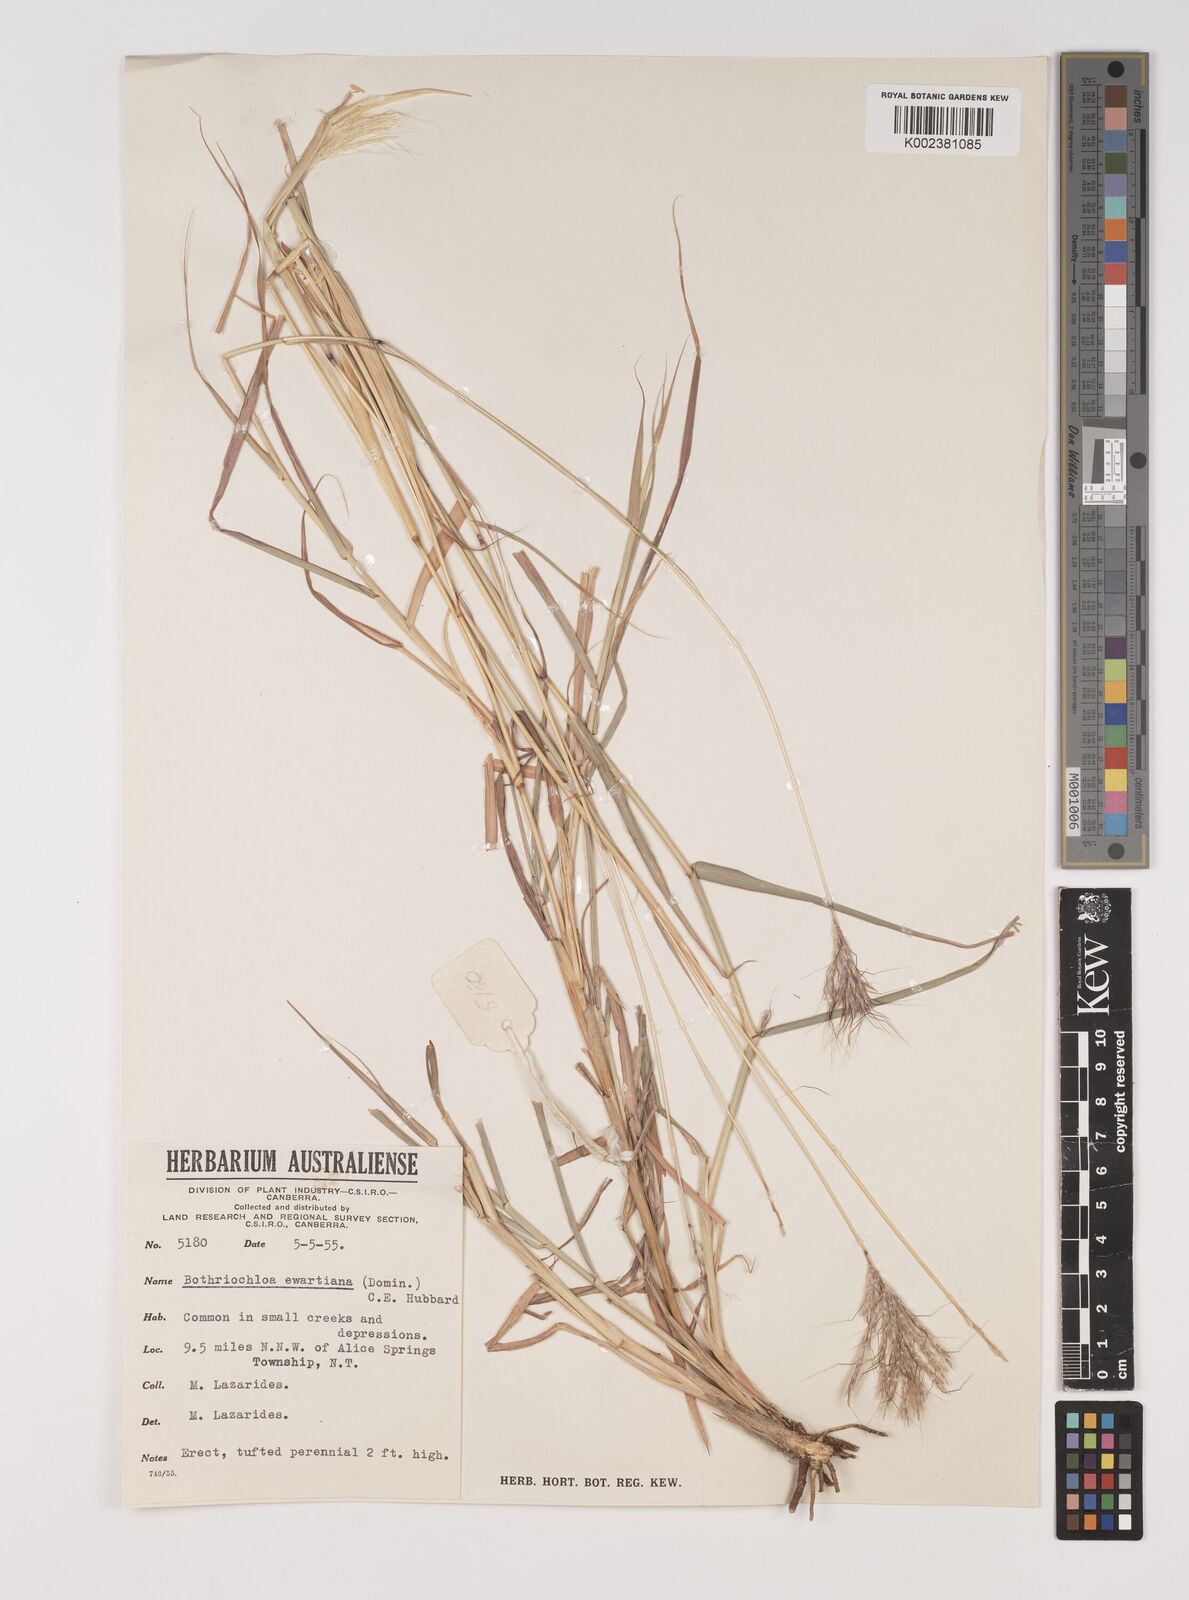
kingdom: Plantae
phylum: Tracheophyta
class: Liliopsida
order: Poales
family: Poaceae
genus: Bothriochloa
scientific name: Bothriochloa ewartiana
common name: Desert-bluegrass
